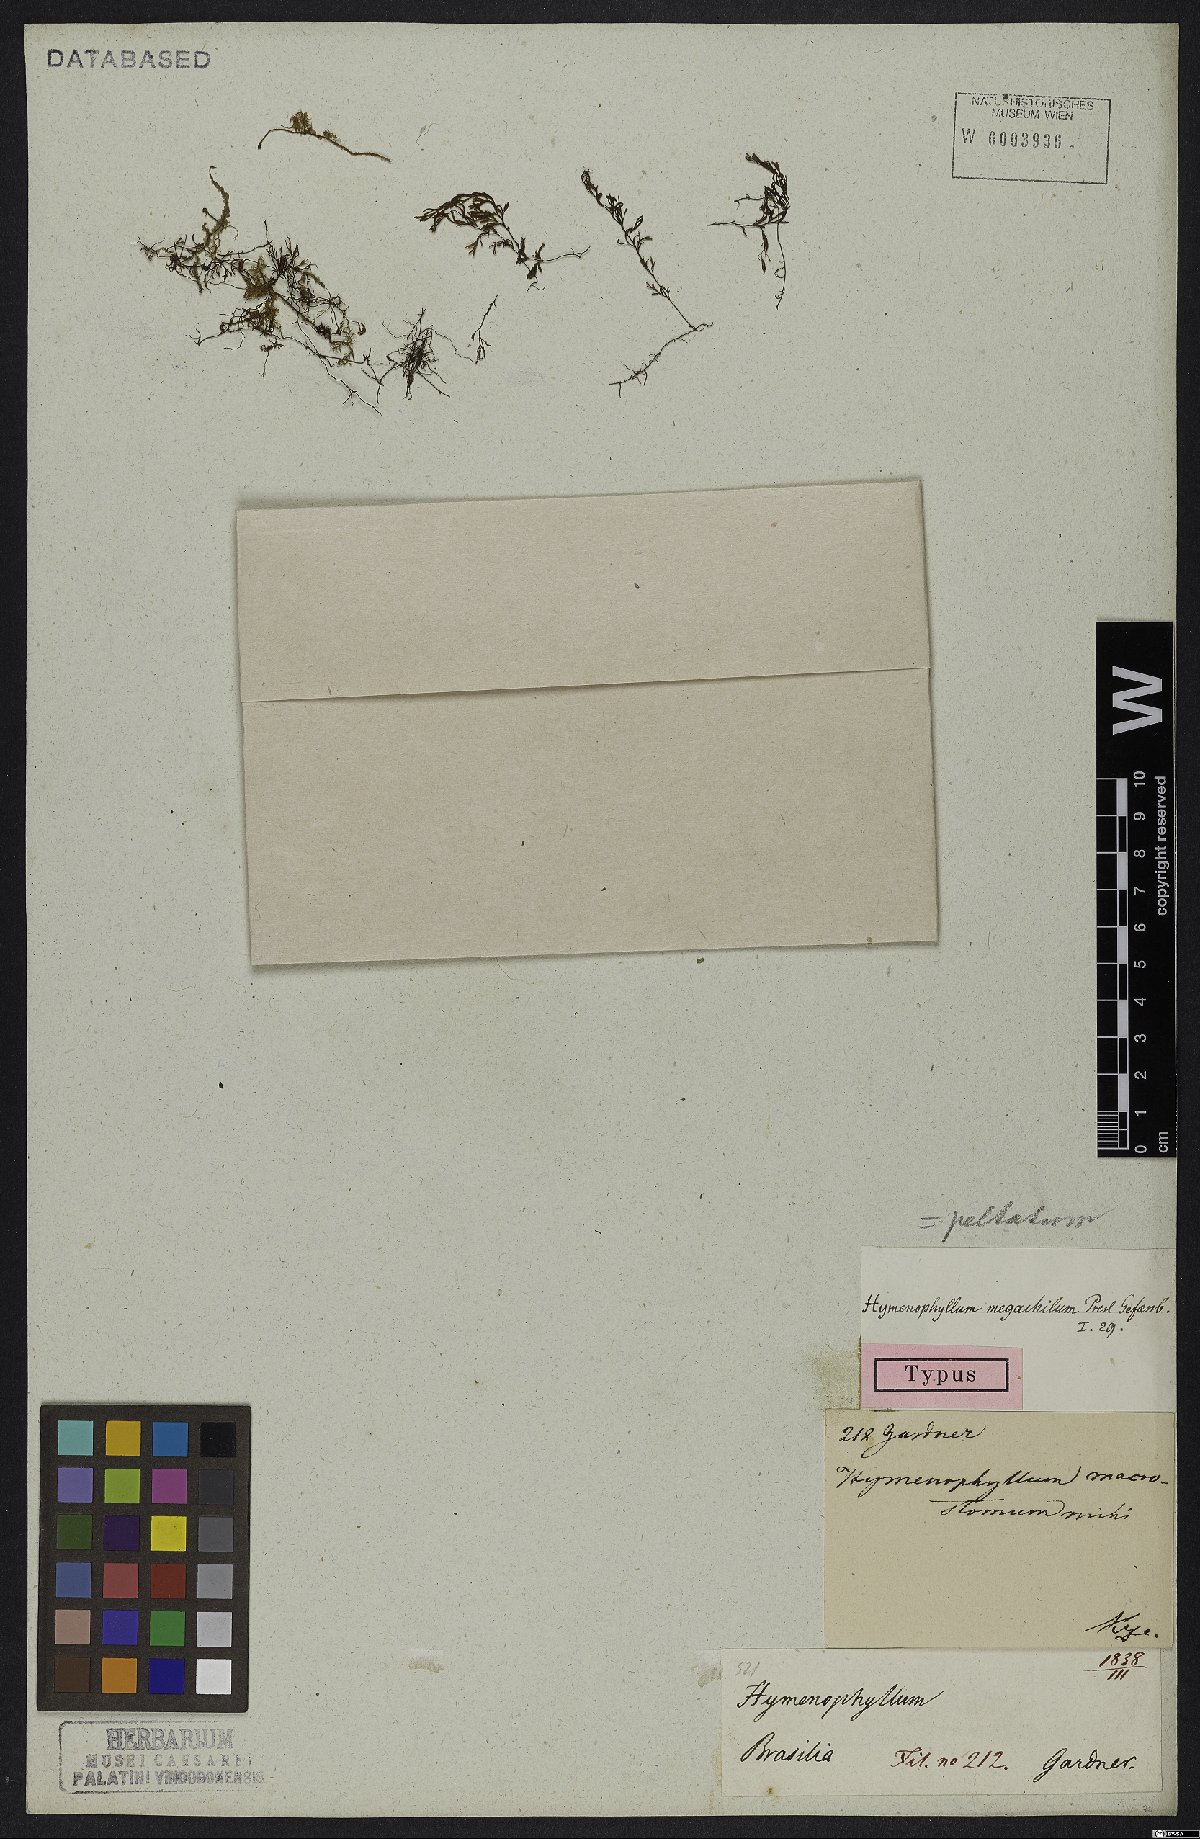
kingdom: Plantae
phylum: Tracheophyta
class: Polypodiopsida
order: Hymenophyllales
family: Hymenophyllaceae
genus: Hymenophyllum
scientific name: Hymenophyllum peltatum
